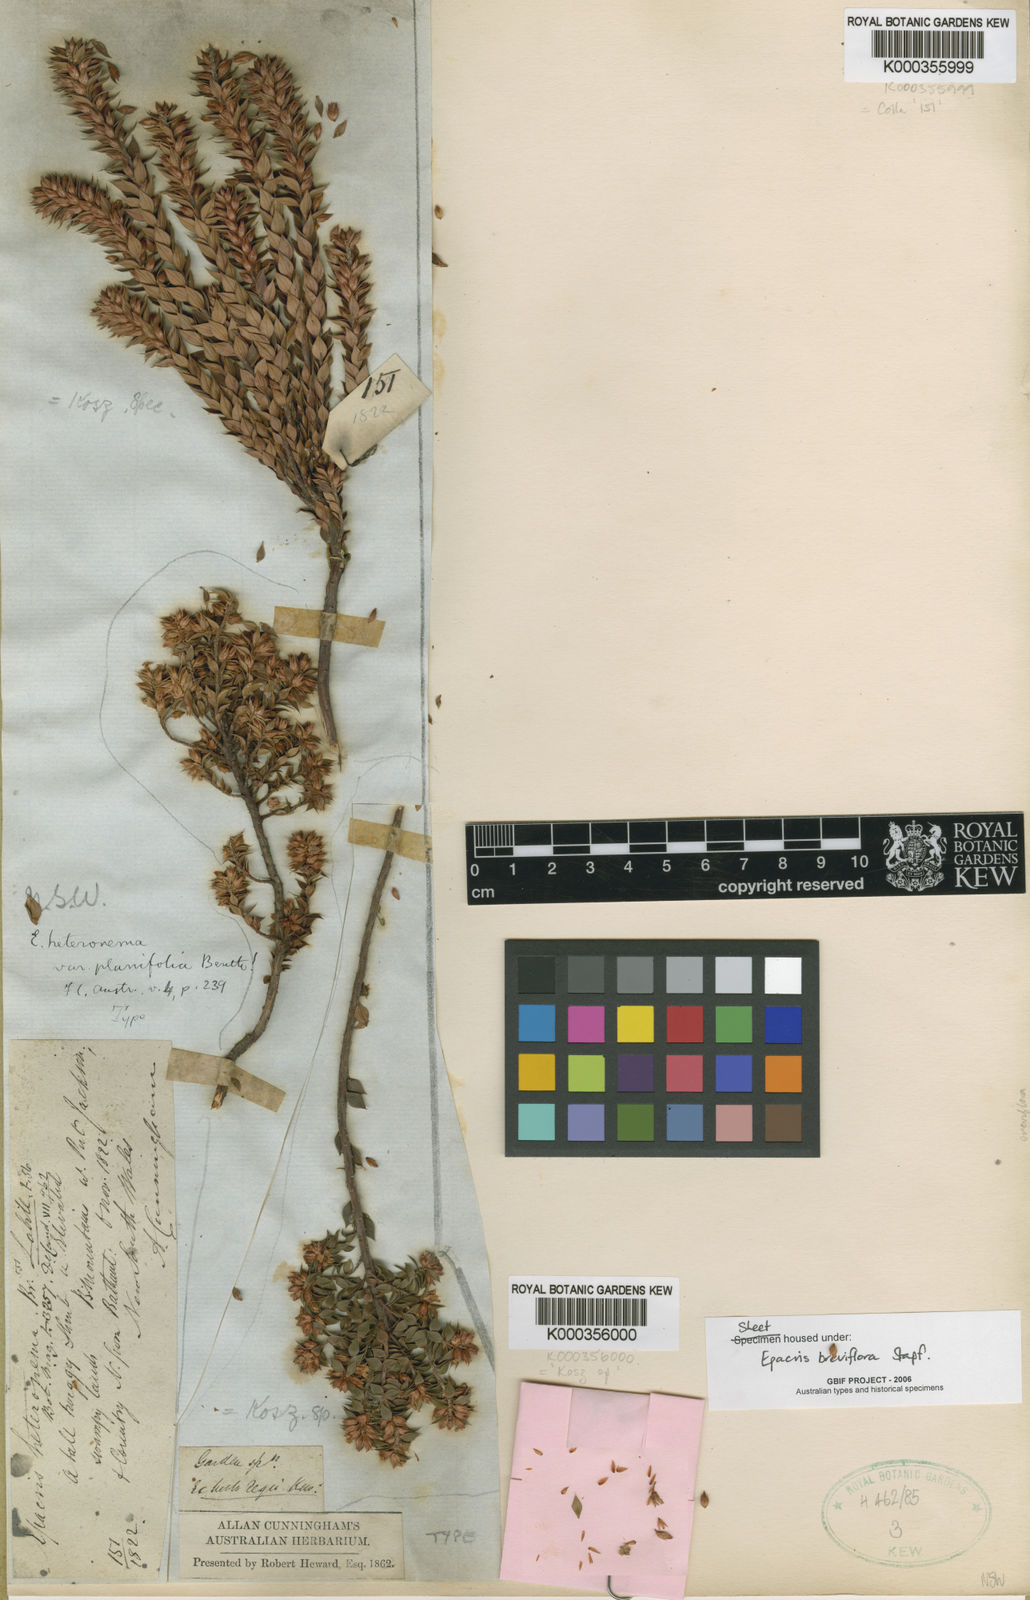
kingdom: Plantae
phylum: Tracheophyta
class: Magnoliopsida
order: Ericales
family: Ericaceae
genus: Epacris
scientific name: Epacris breviflora
